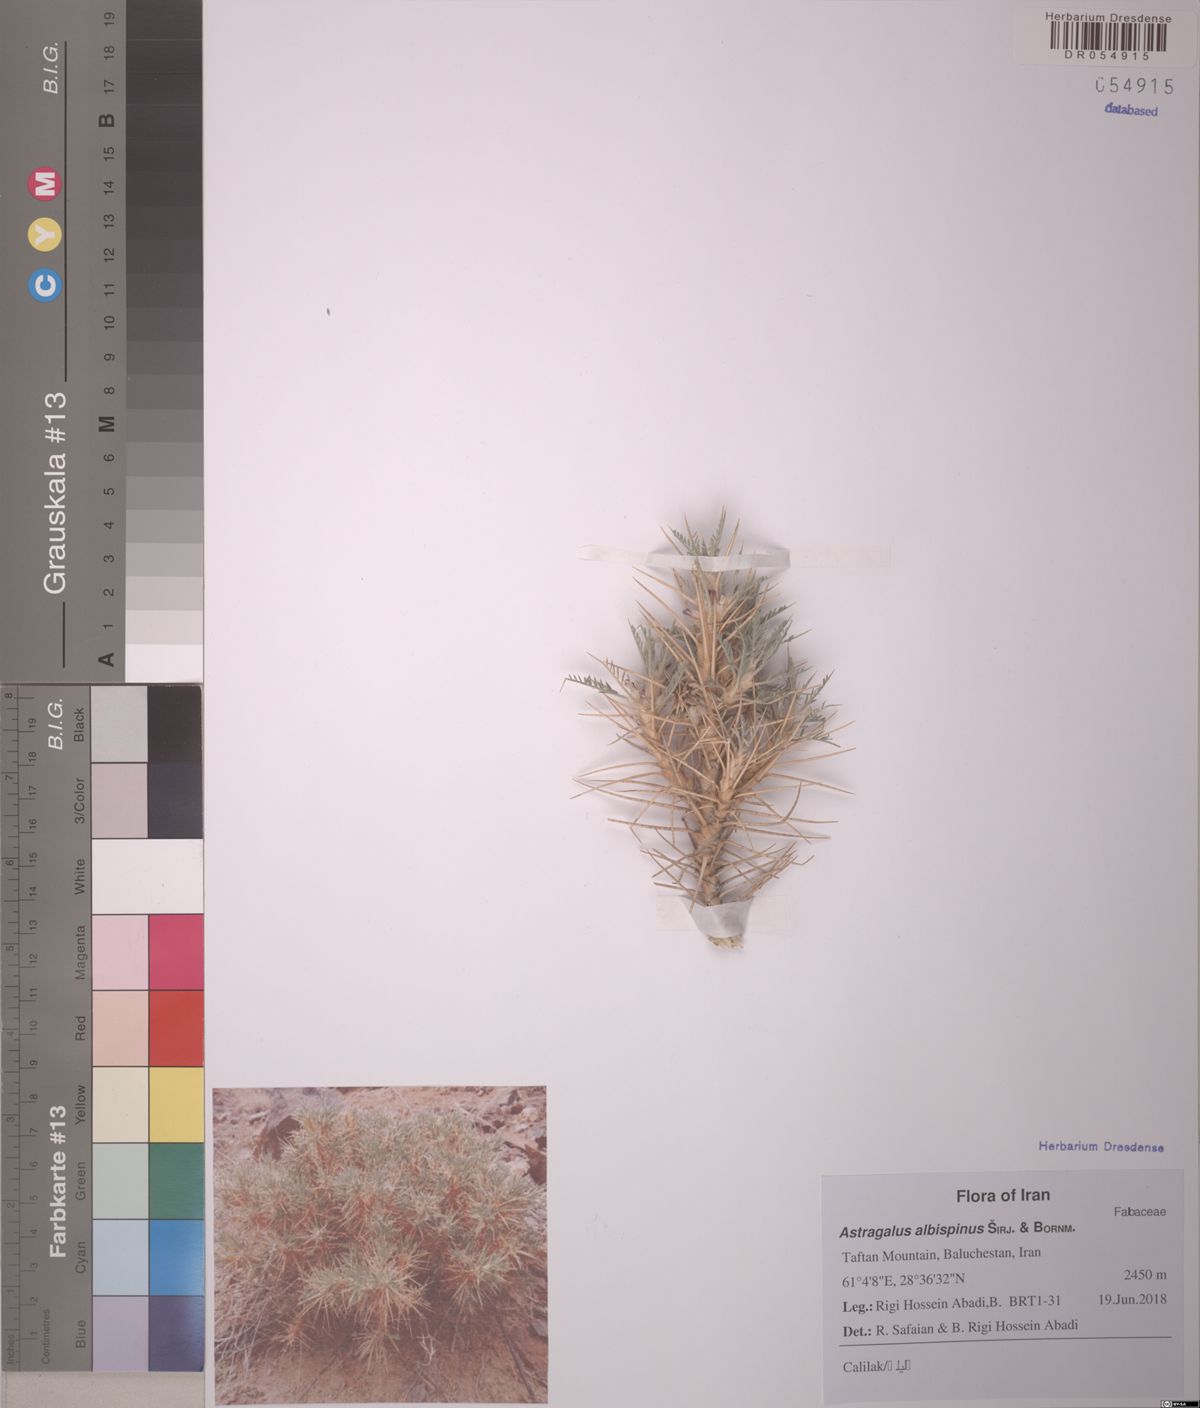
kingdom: Plantae
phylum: Tracheophyta
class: Magnoliopsida
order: Fabales
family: Fabaceae
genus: Astragalus
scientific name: Astragalus albispinus
